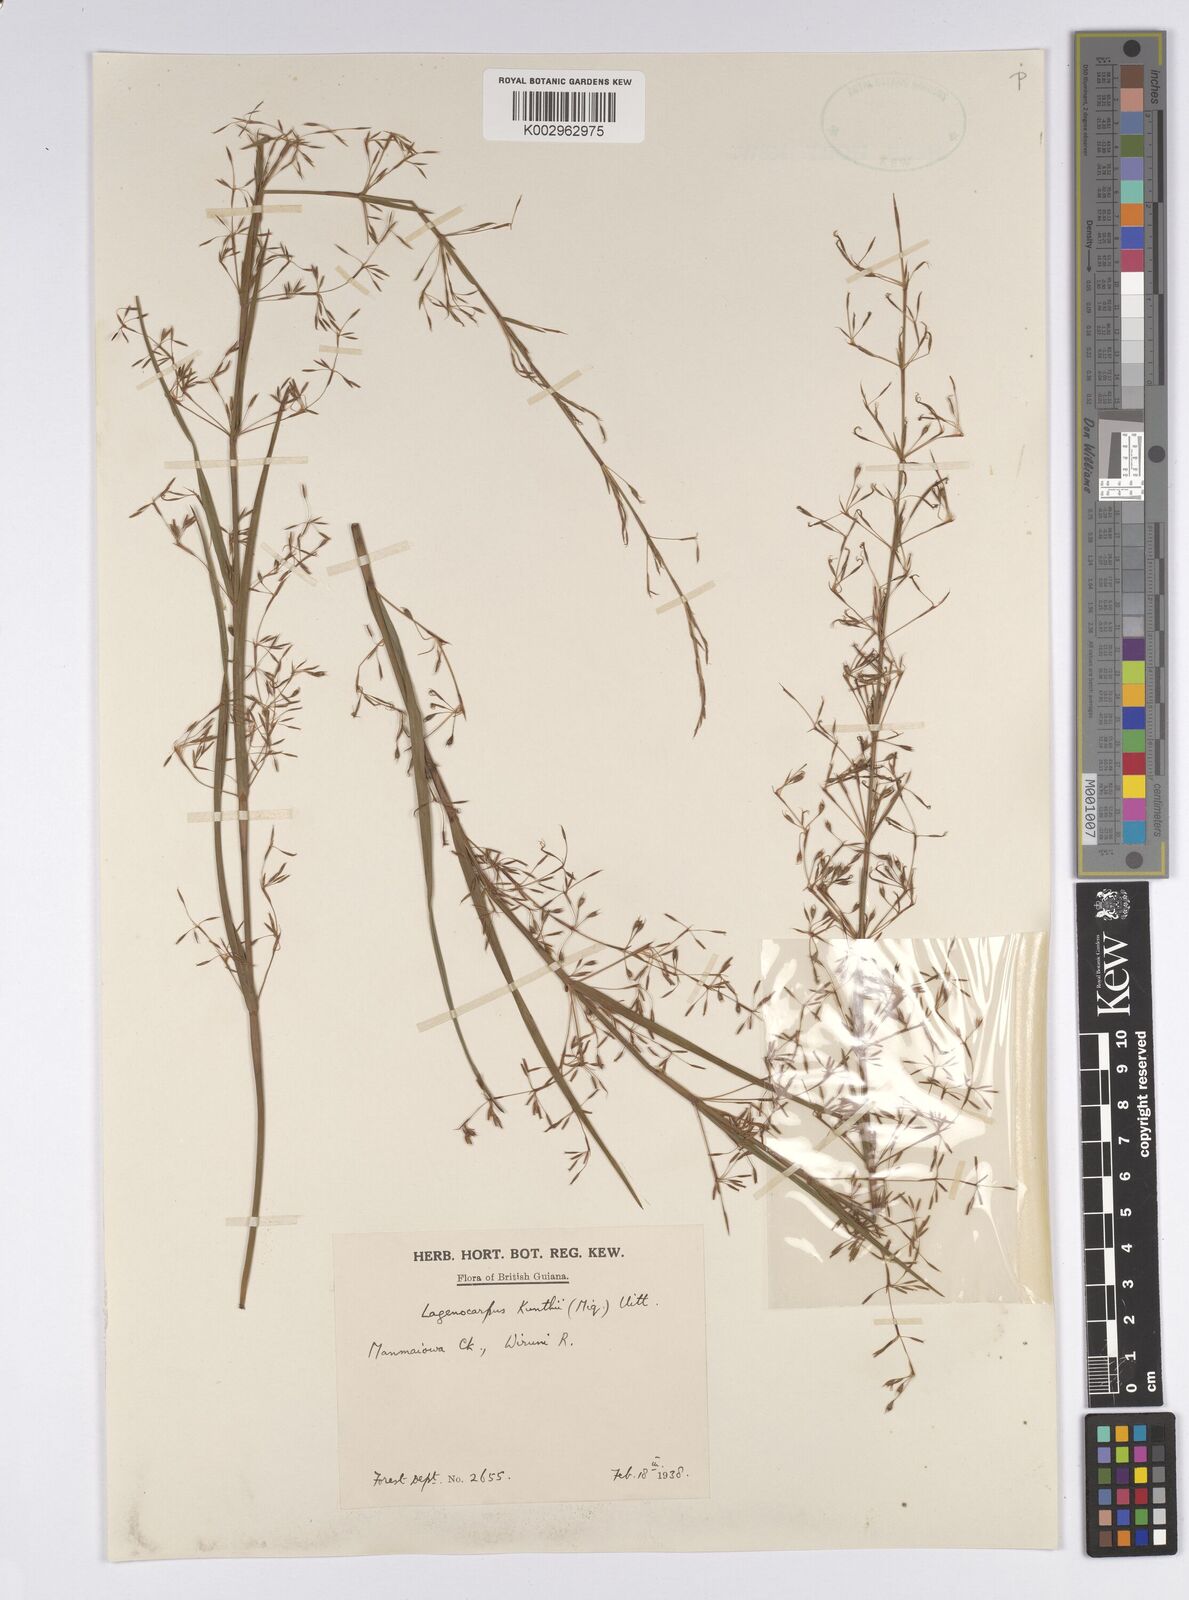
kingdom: Plantae
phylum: Tracheophyta
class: Liliopsida
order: Poales
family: Cyperaceae
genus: Cryptangium
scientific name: Cryptangium verticillatum
